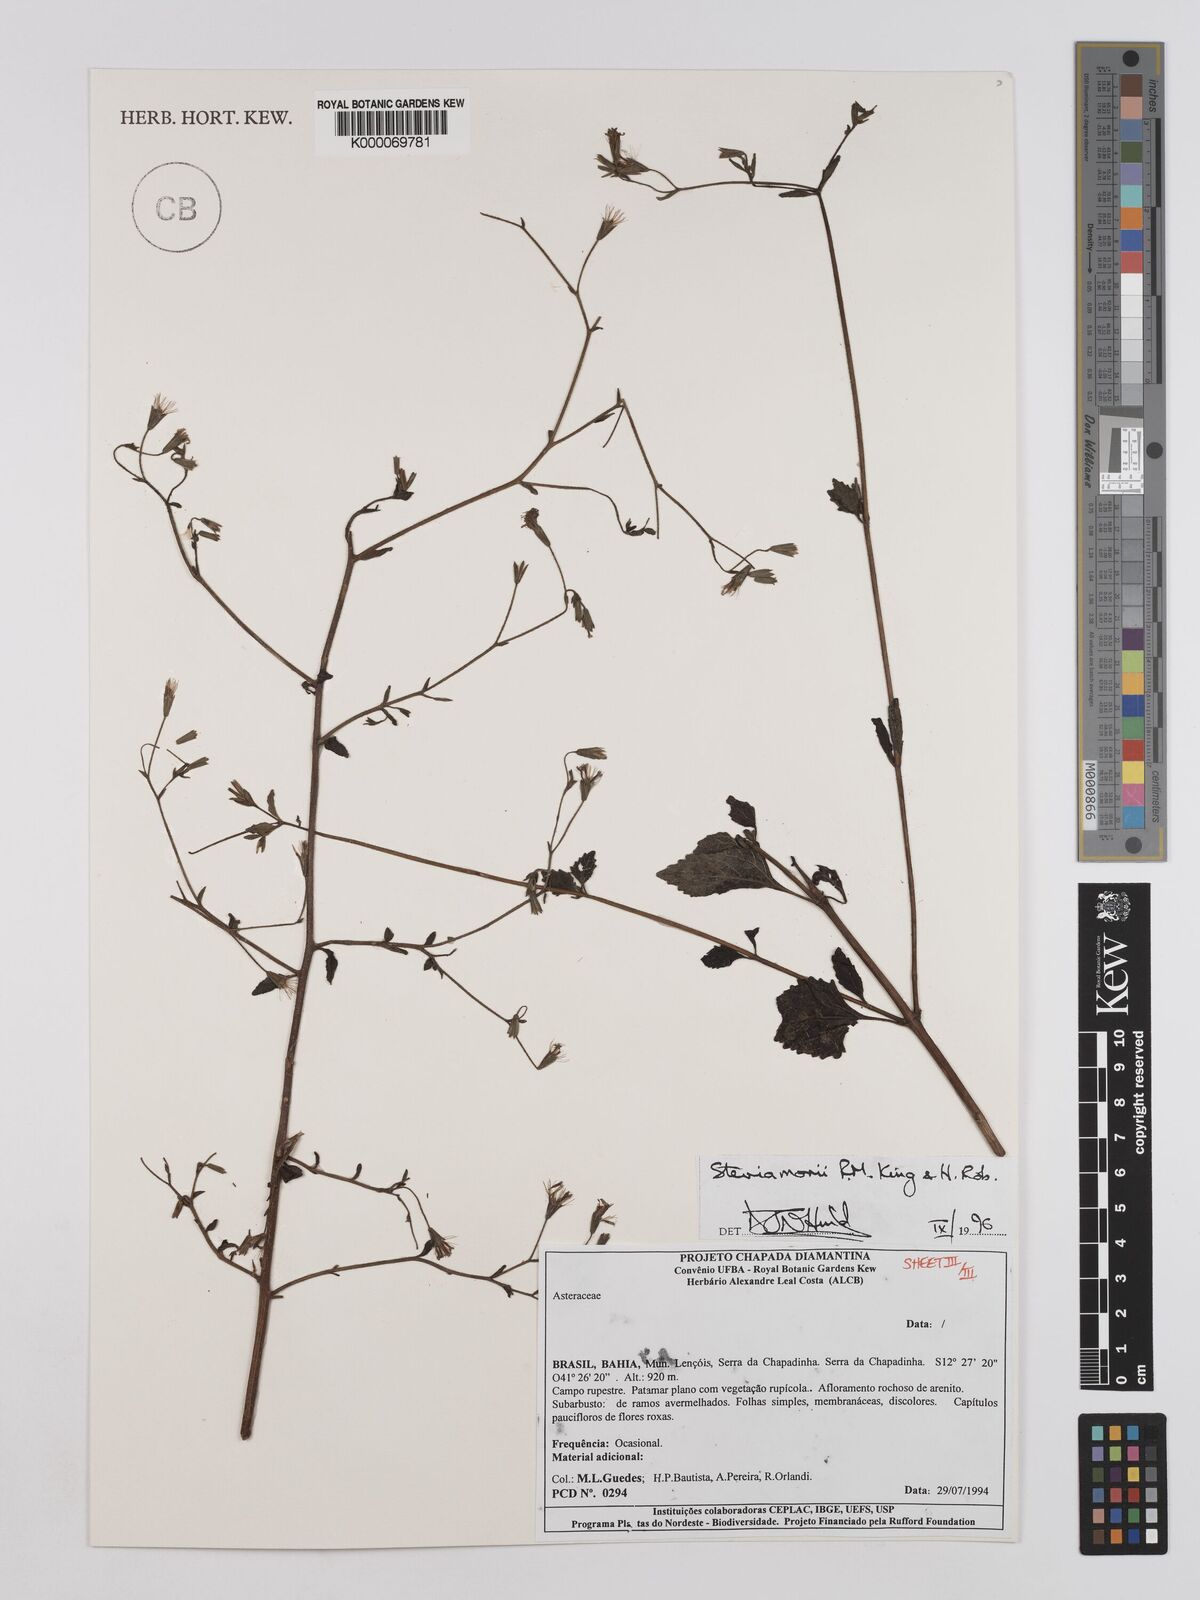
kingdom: Plantae
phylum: Tracheophyta
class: Magnoliopsida
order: Asterales
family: Asteraceae
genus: Stevia
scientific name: Stevia morii
